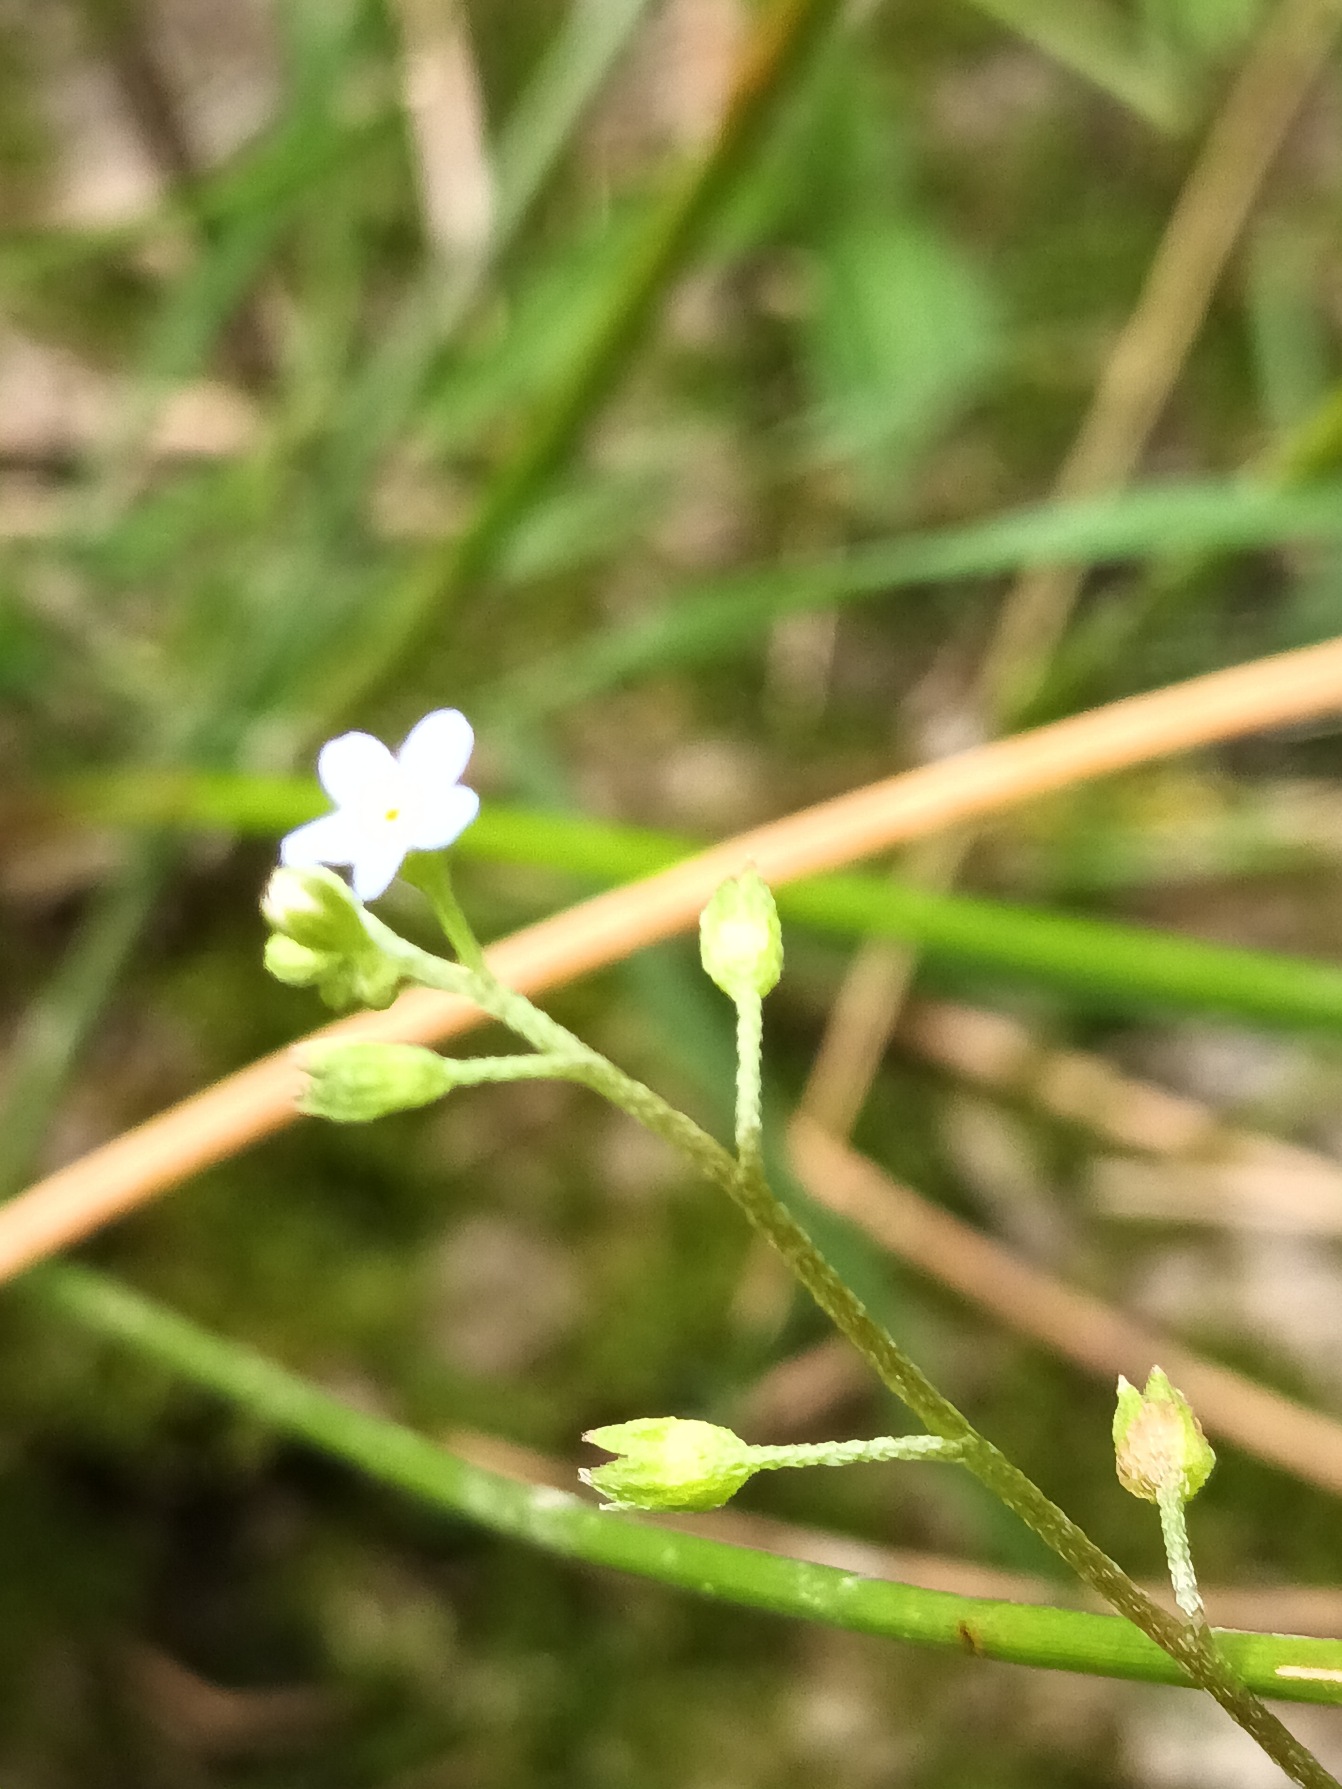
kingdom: Plantae
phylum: Tracheophyta
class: Magnoliopsida
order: Boraginales
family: Boraginaceae
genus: Myosotis
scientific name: Myosotis scorpioides
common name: Eng-forglemmigej
